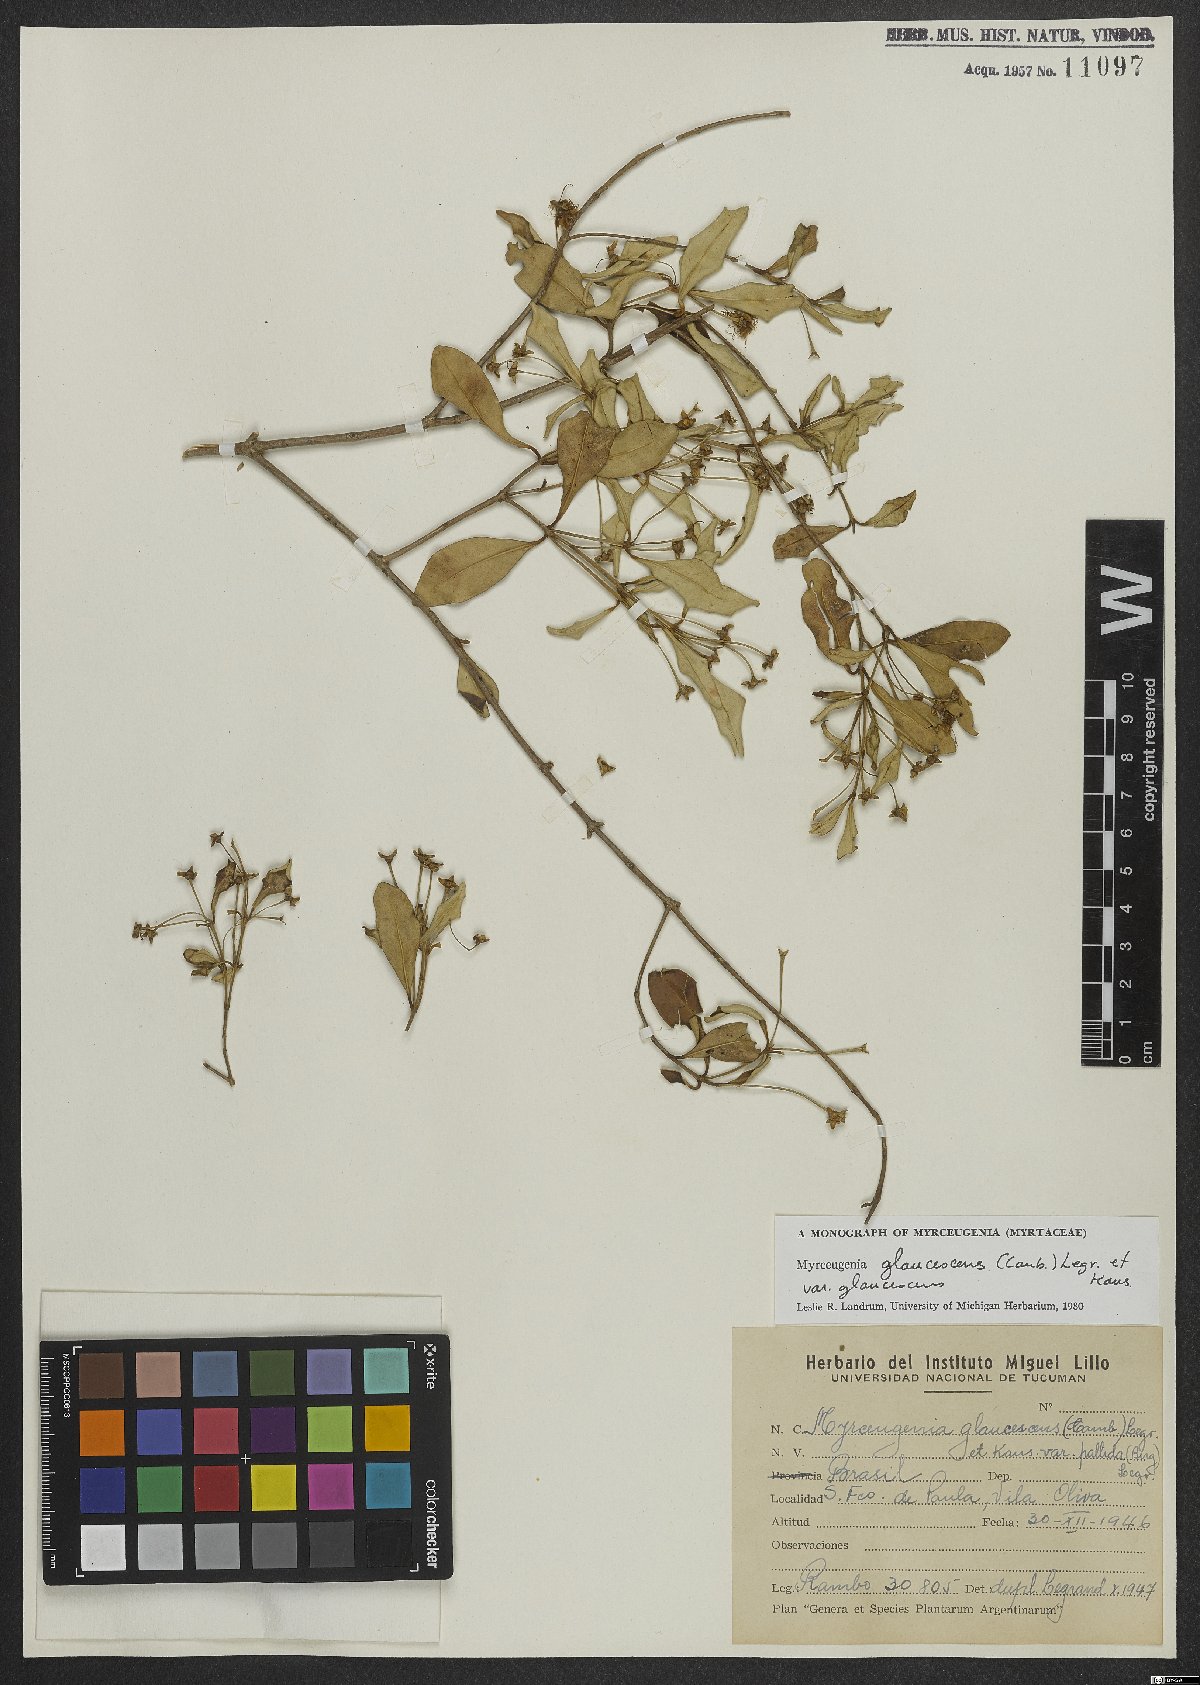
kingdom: Plantae
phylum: Tracheophyta
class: Magnoliopsida
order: Myrtales
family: Myrtaceae
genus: Myrceugenia
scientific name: Myrceugenia glaucescens
